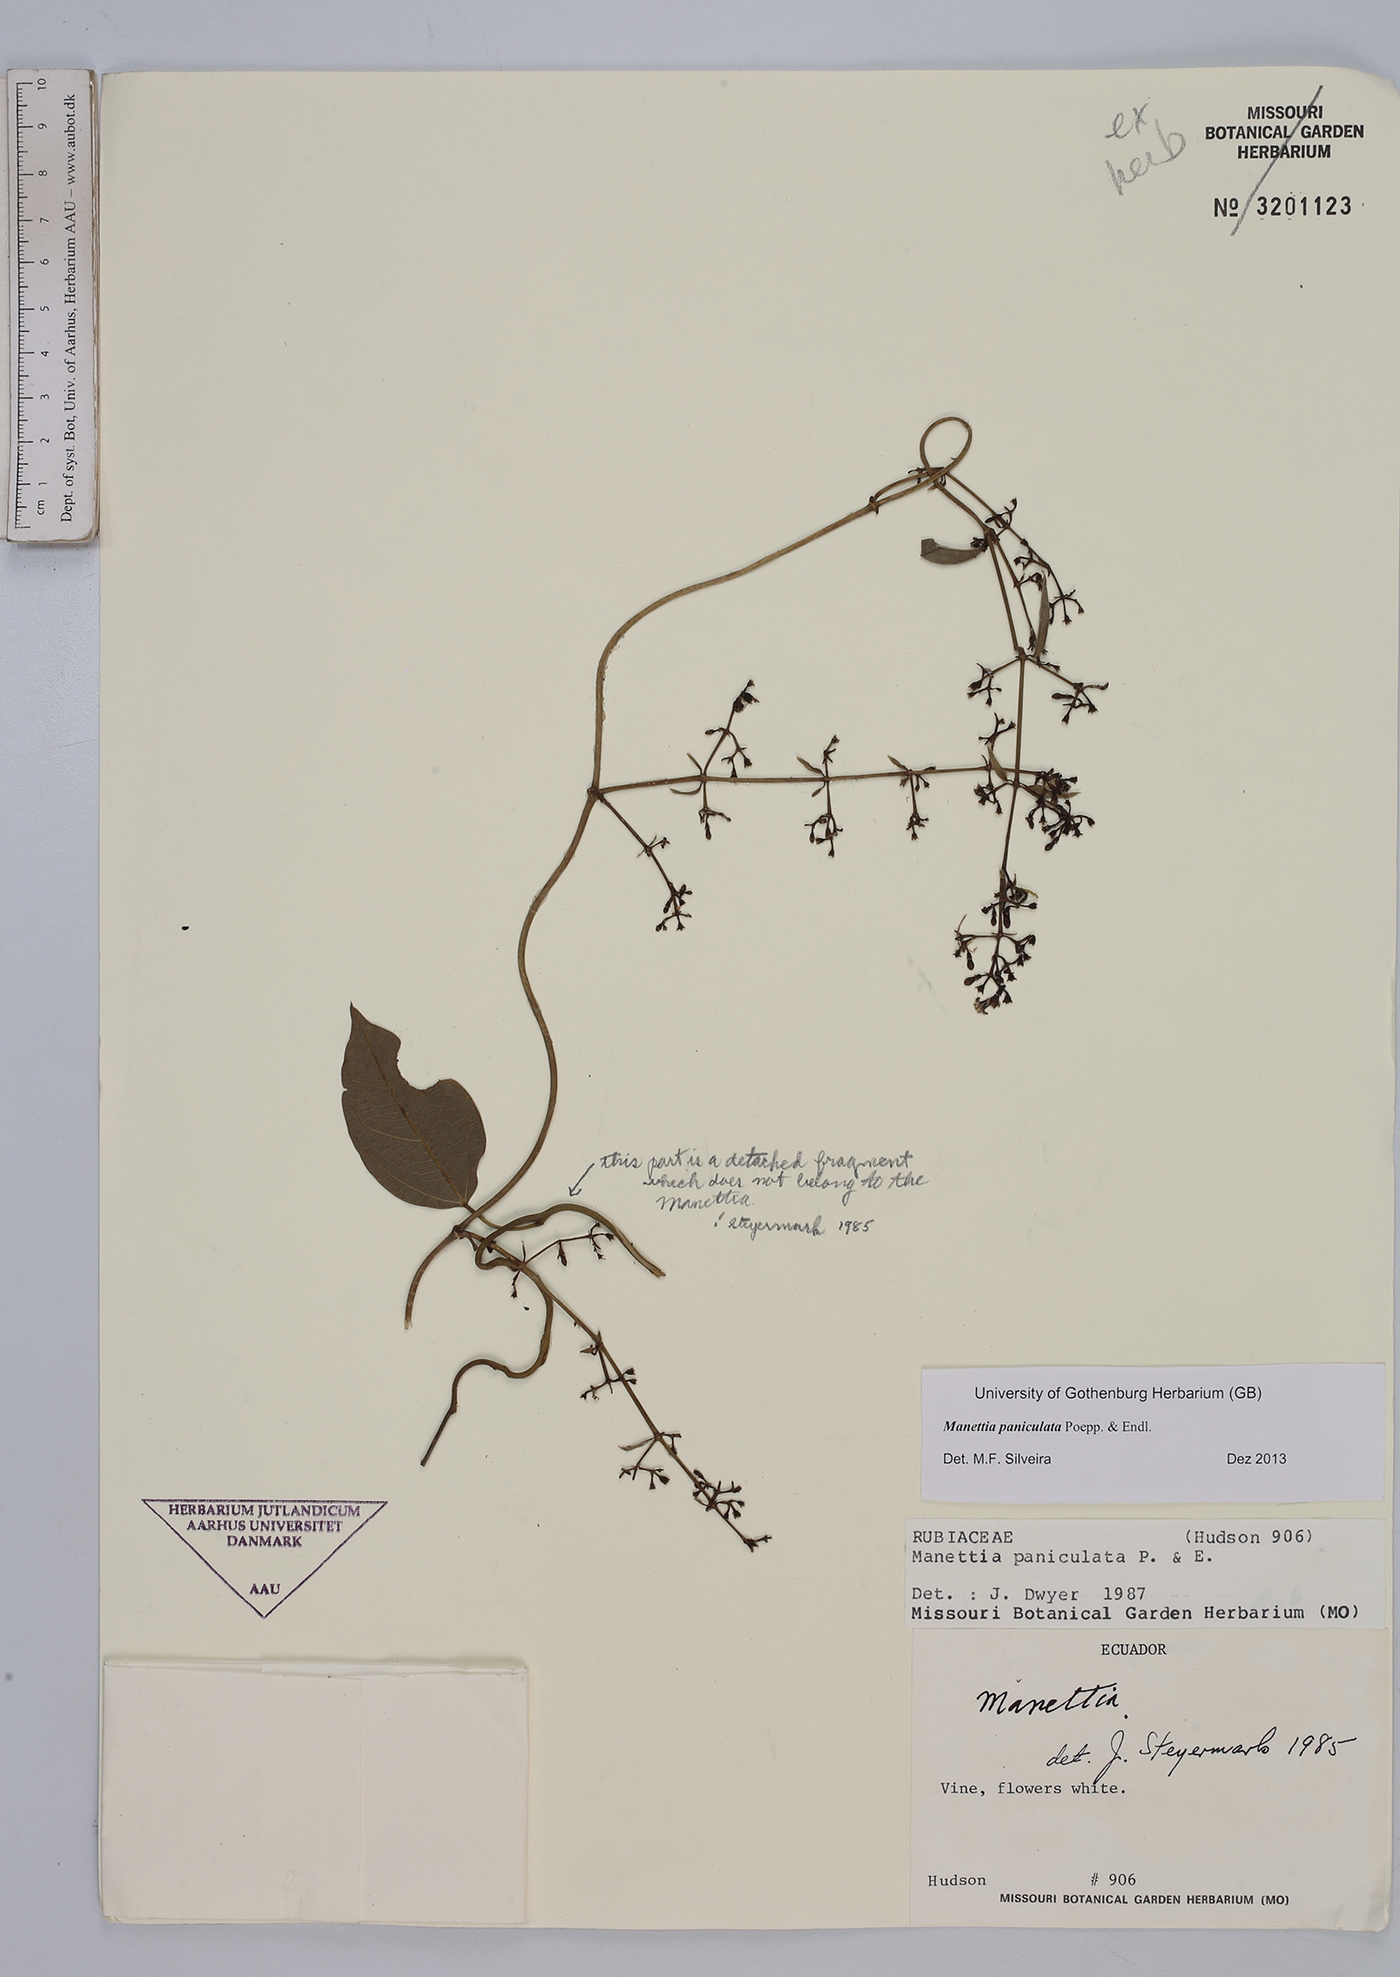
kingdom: Plantae
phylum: Tracheophyta
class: Magnoliopsida
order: Gentianales
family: Rubiaceae
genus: Manettia
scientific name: Manettia paniculata
